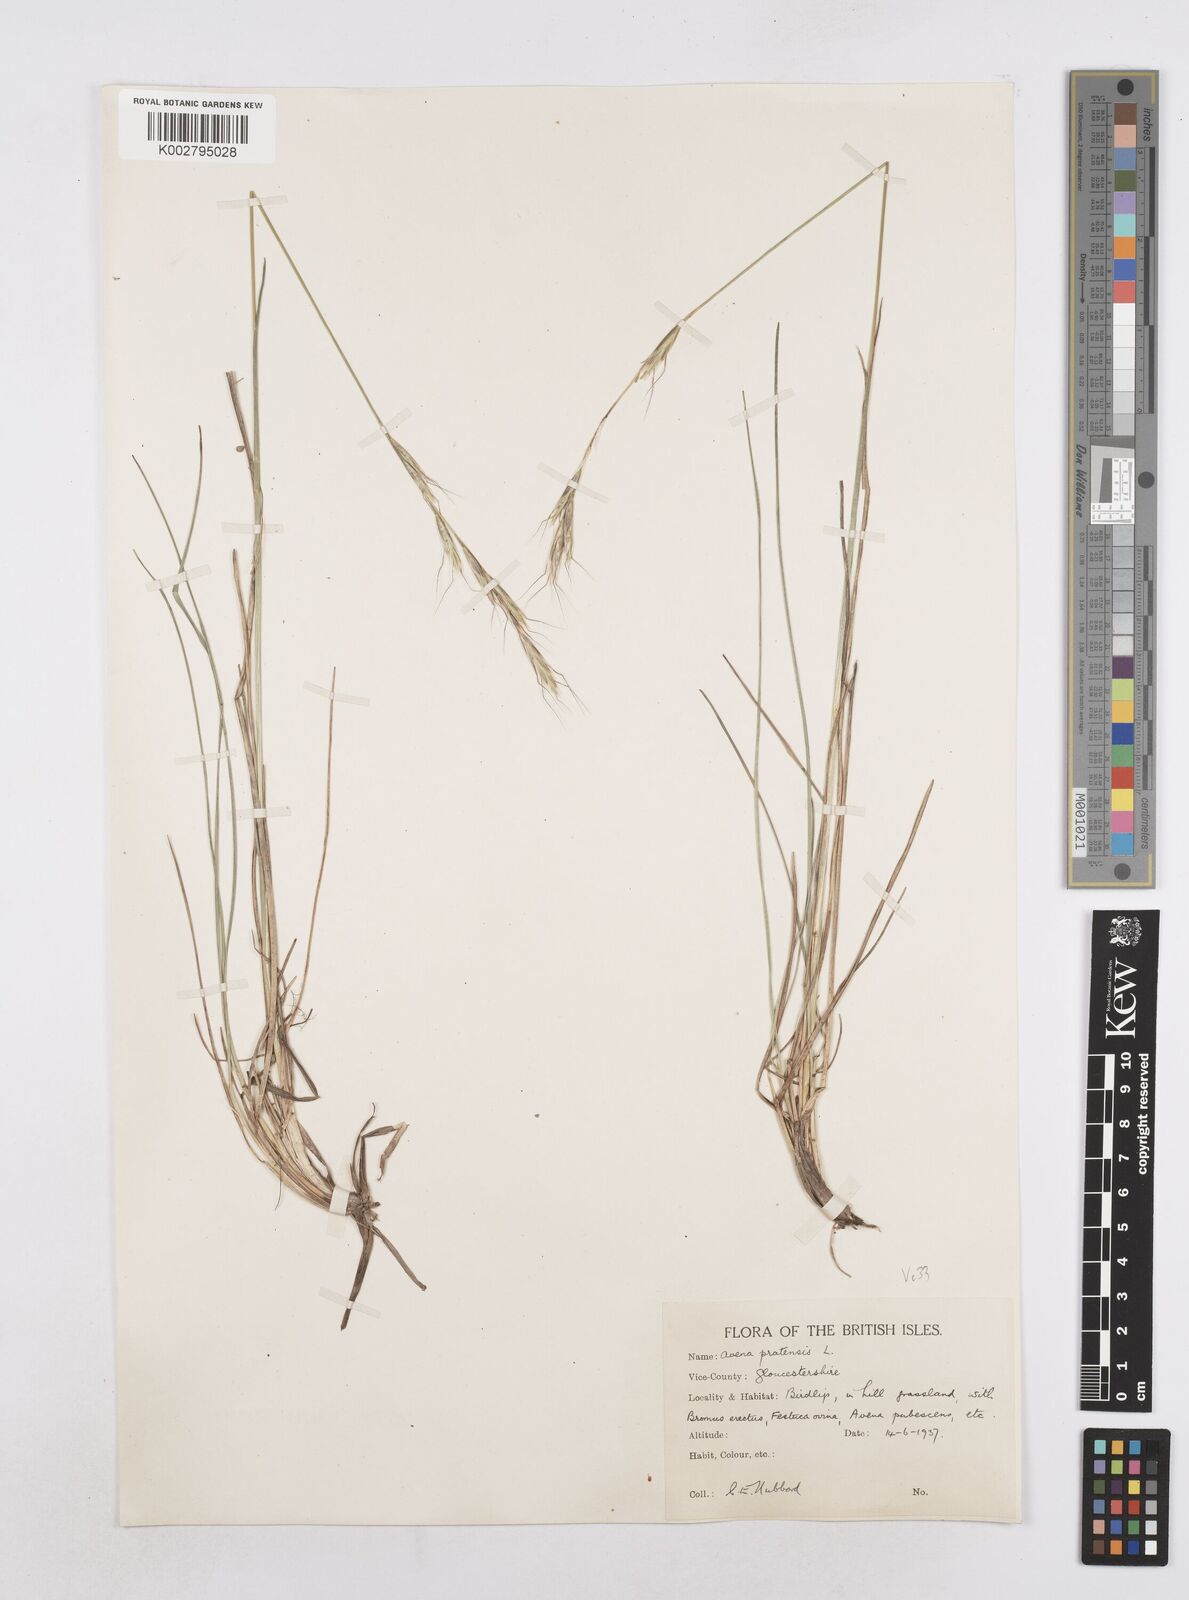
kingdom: Plantae
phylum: Tracheophyta
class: Liliopsida
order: Poales
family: Poaceae
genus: Helictochloa
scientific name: Helictochloa pratensis
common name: Meadow oat grass
